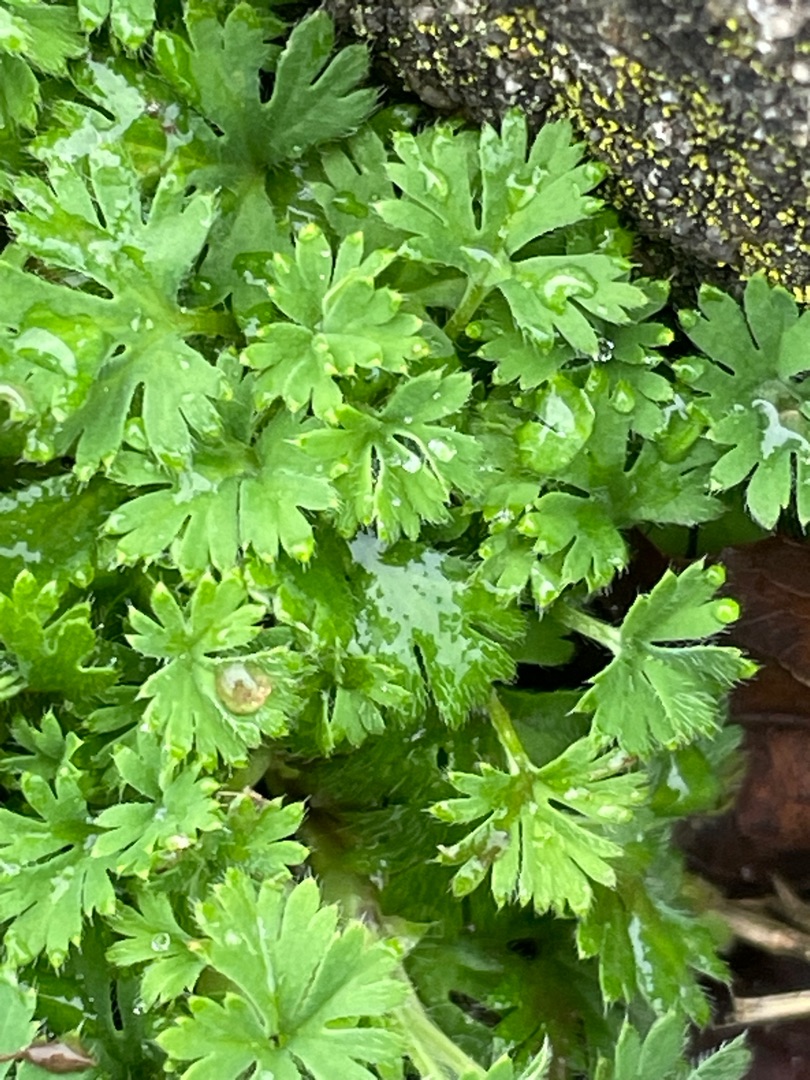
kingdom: Plantae
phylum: Tracheophyta
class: Magnoliopsida
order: Rosales
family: Rosaceae
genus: Aphanes
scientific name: Aphanes arvensis
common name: Dværgløvefod
